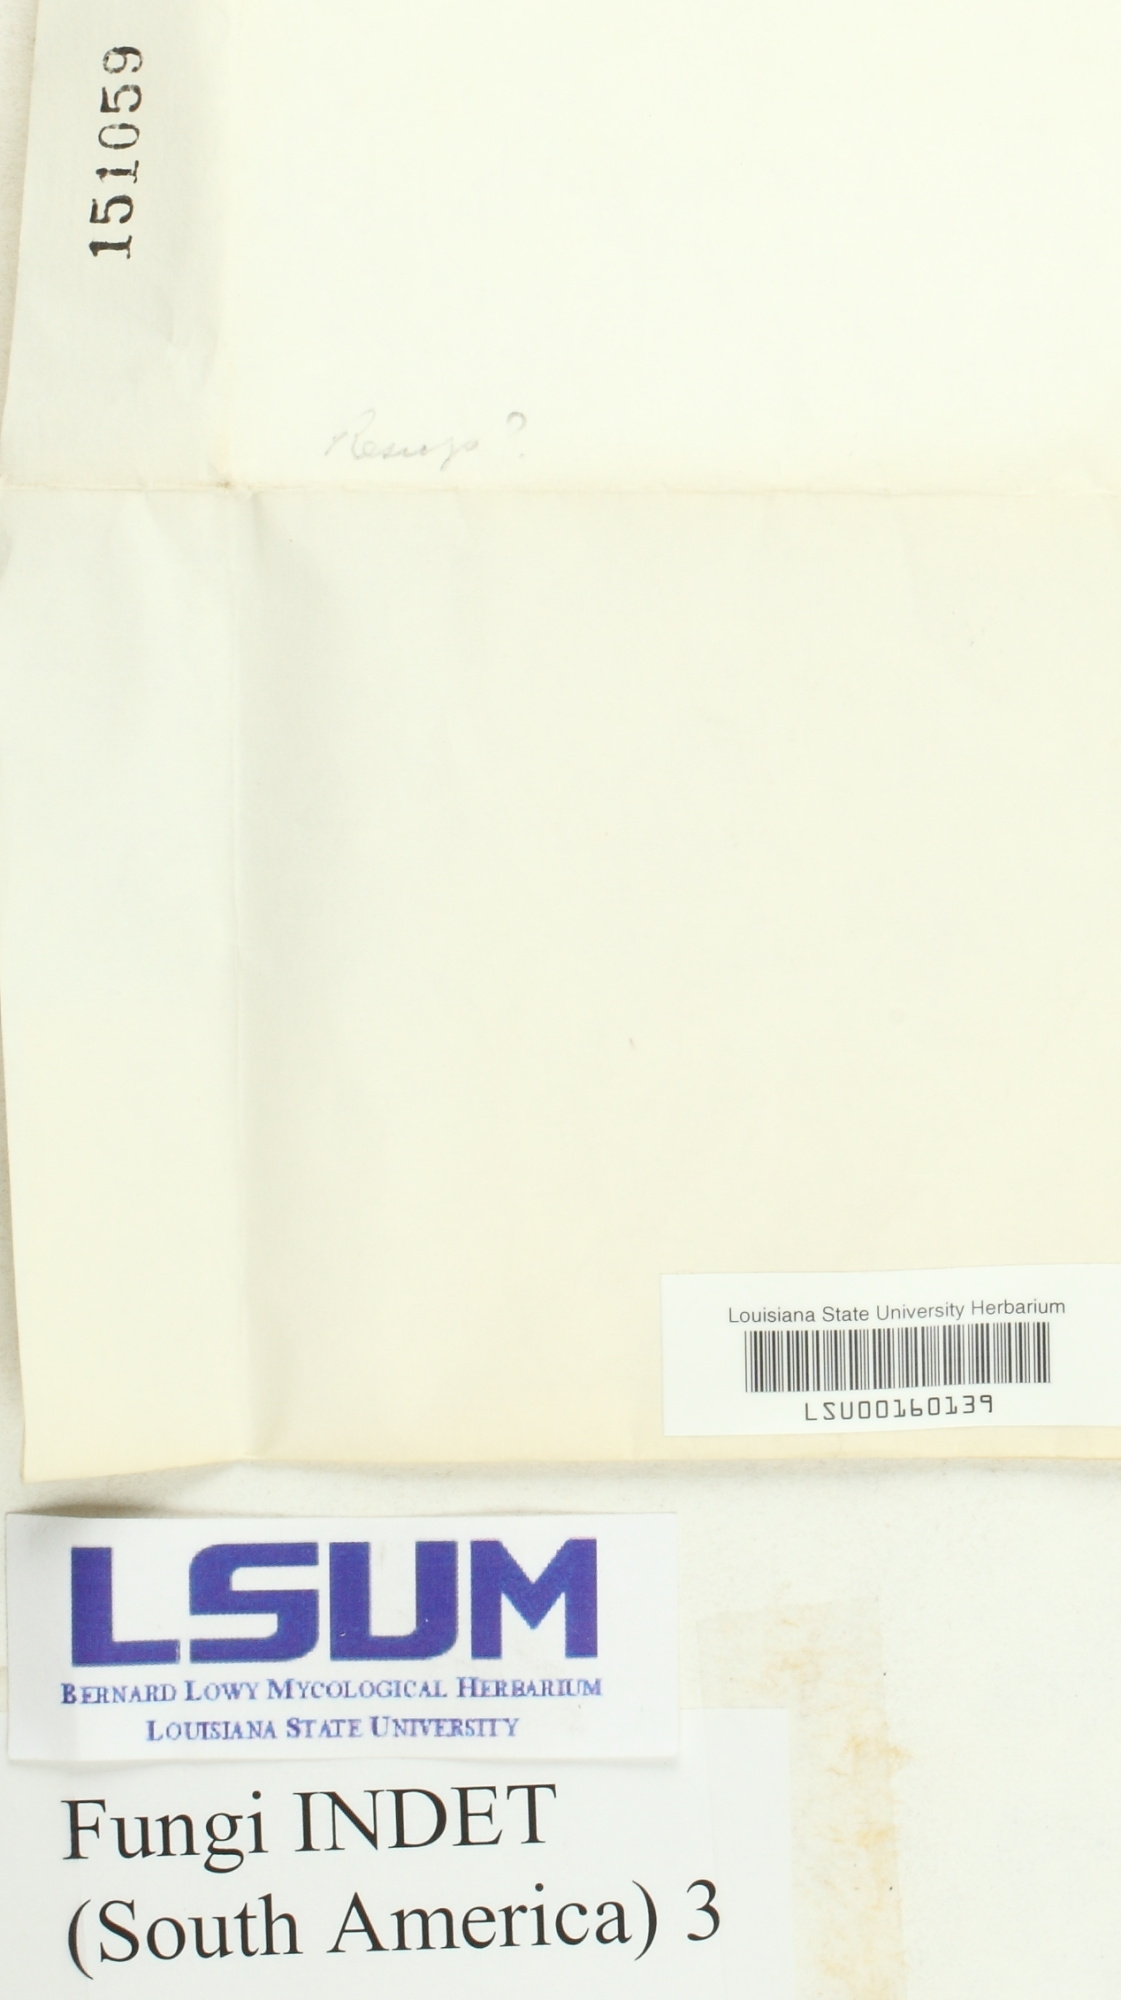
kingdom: Fungi
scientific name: Fungi
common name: Fungi
